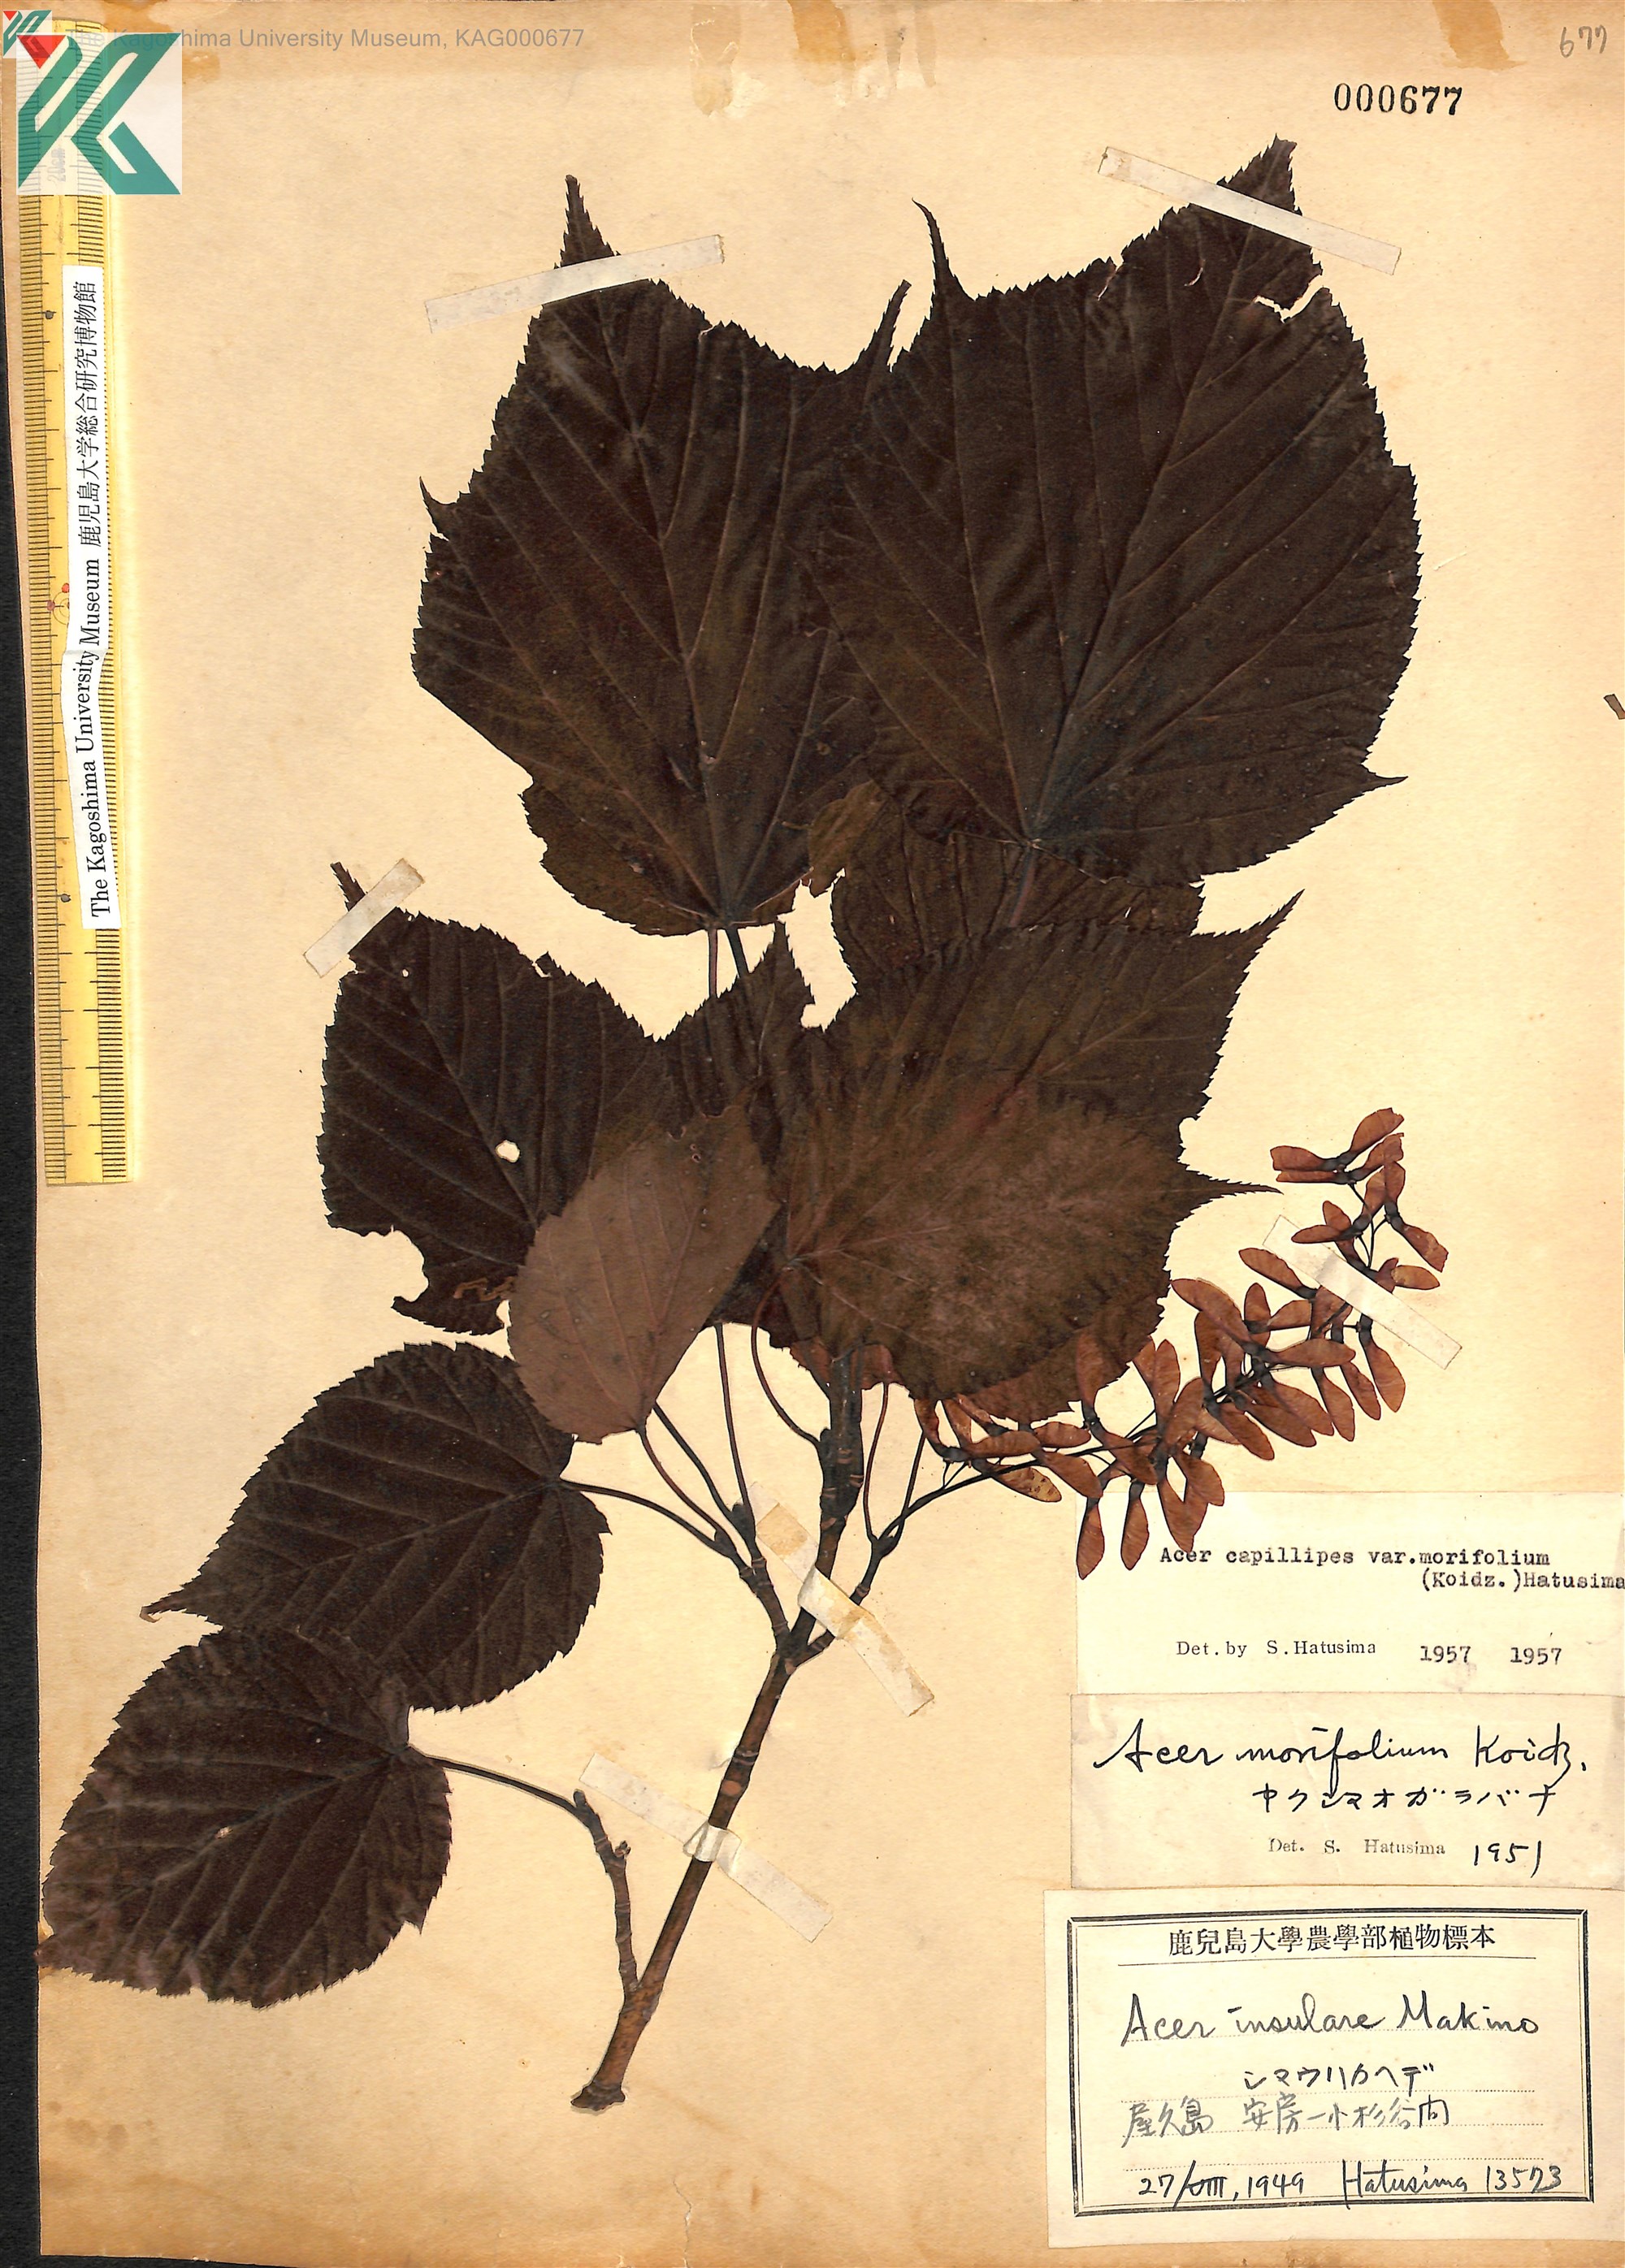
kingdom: Plantae
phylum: Tracheophyta
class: Magnoliopsida
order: Sapindales
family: Sapindaceae
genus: Acer
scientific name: Acer morifolium
